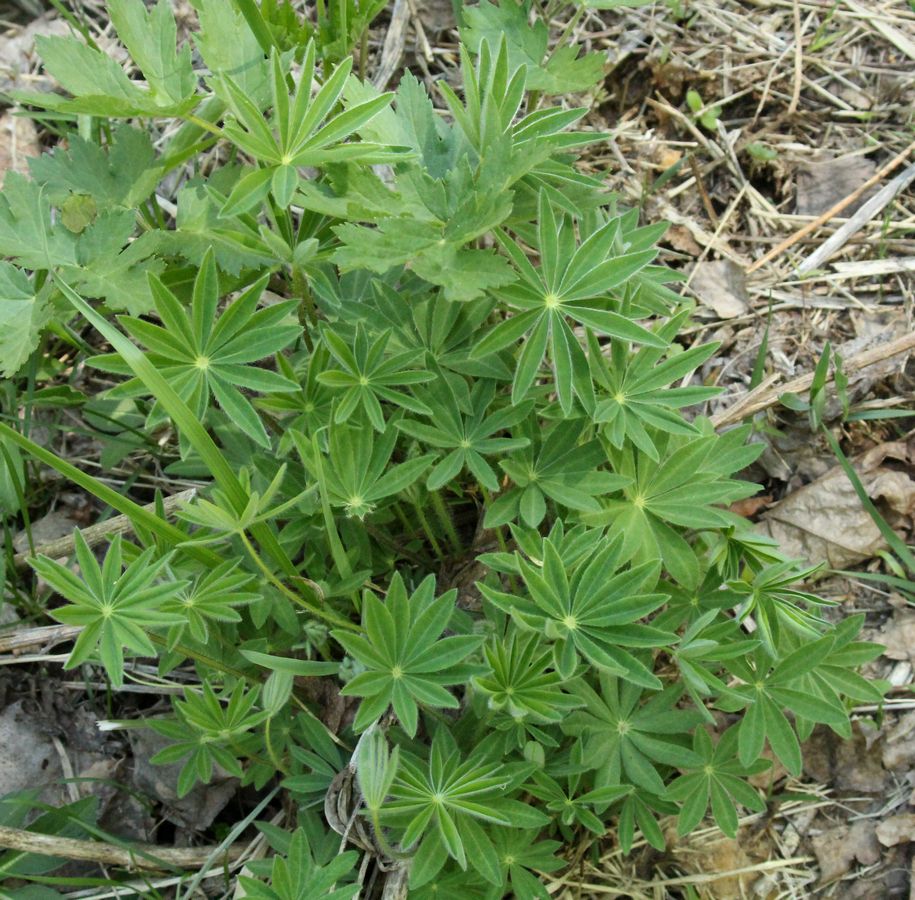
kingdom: Plantae
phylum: Tracheophyta
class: Magnoliopsida
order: Fabales
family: Fabaceae
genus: Lupinus
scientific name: Lupinus polyphyllus
